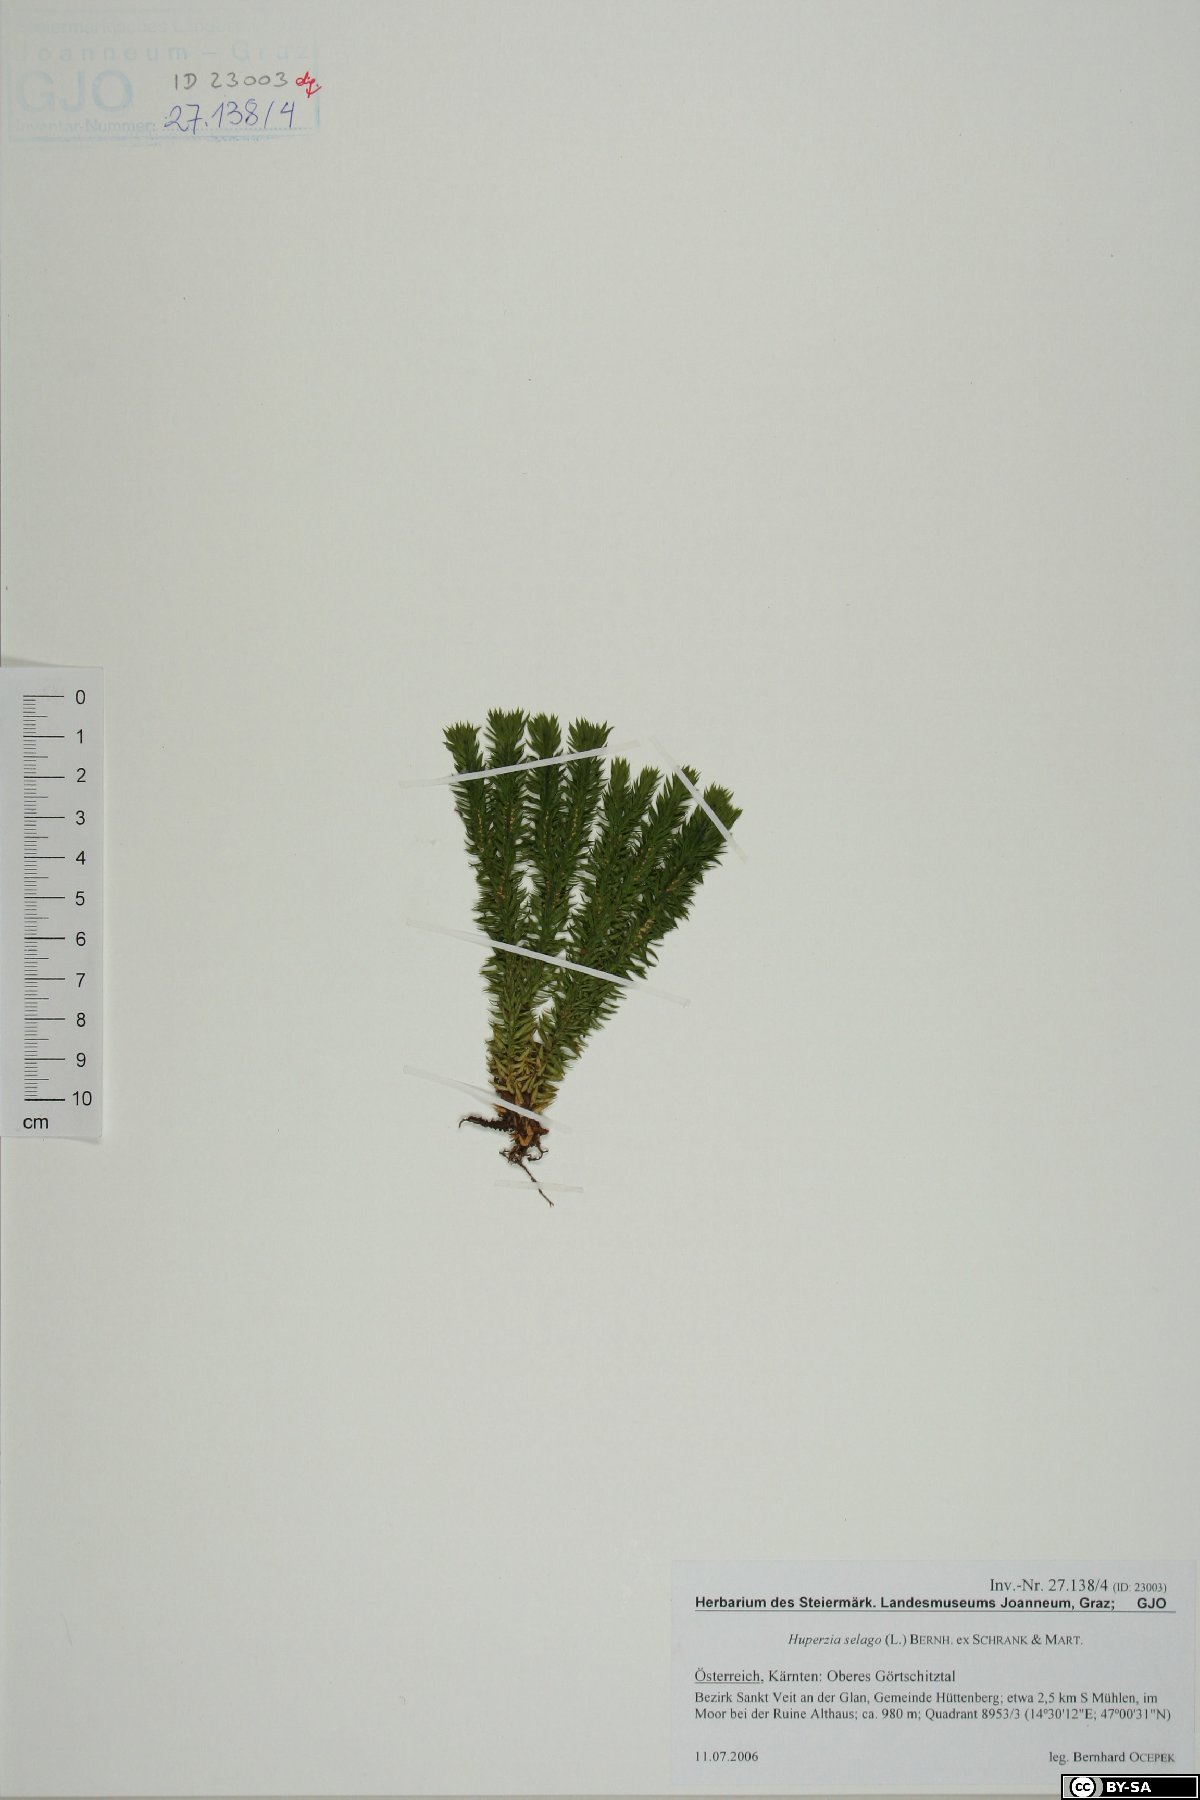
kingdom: Plantae
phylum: Tracheophyta
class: Lycopodiopsida
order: Lycopodiales
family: Lycopodiaceae
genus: Huperzia
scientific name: Huperzia selago
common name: Northern firmoss
